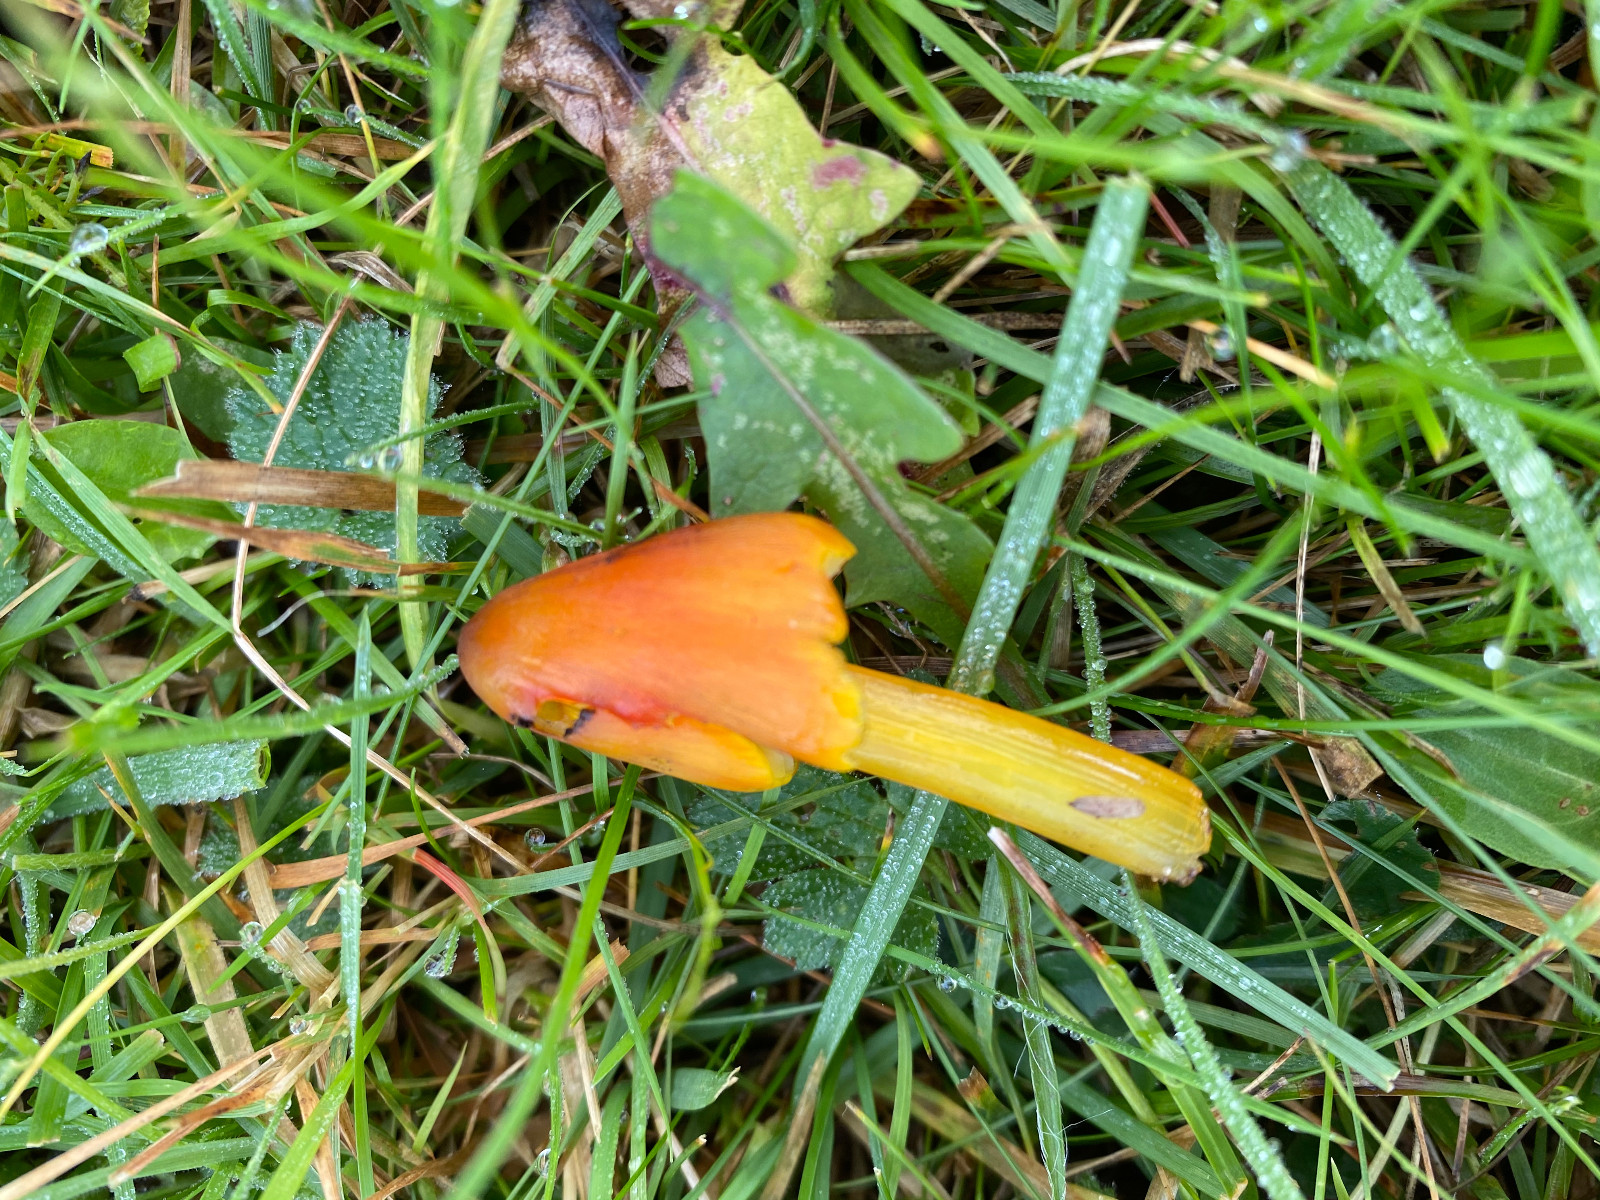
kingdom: Fungi
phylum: Basidiomycota
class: Agaricomycetes
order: Agaricales
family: Hygrophoraceae
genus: Hygrocybe
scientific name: Hygrocybe conica
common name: kegle-vokshat
